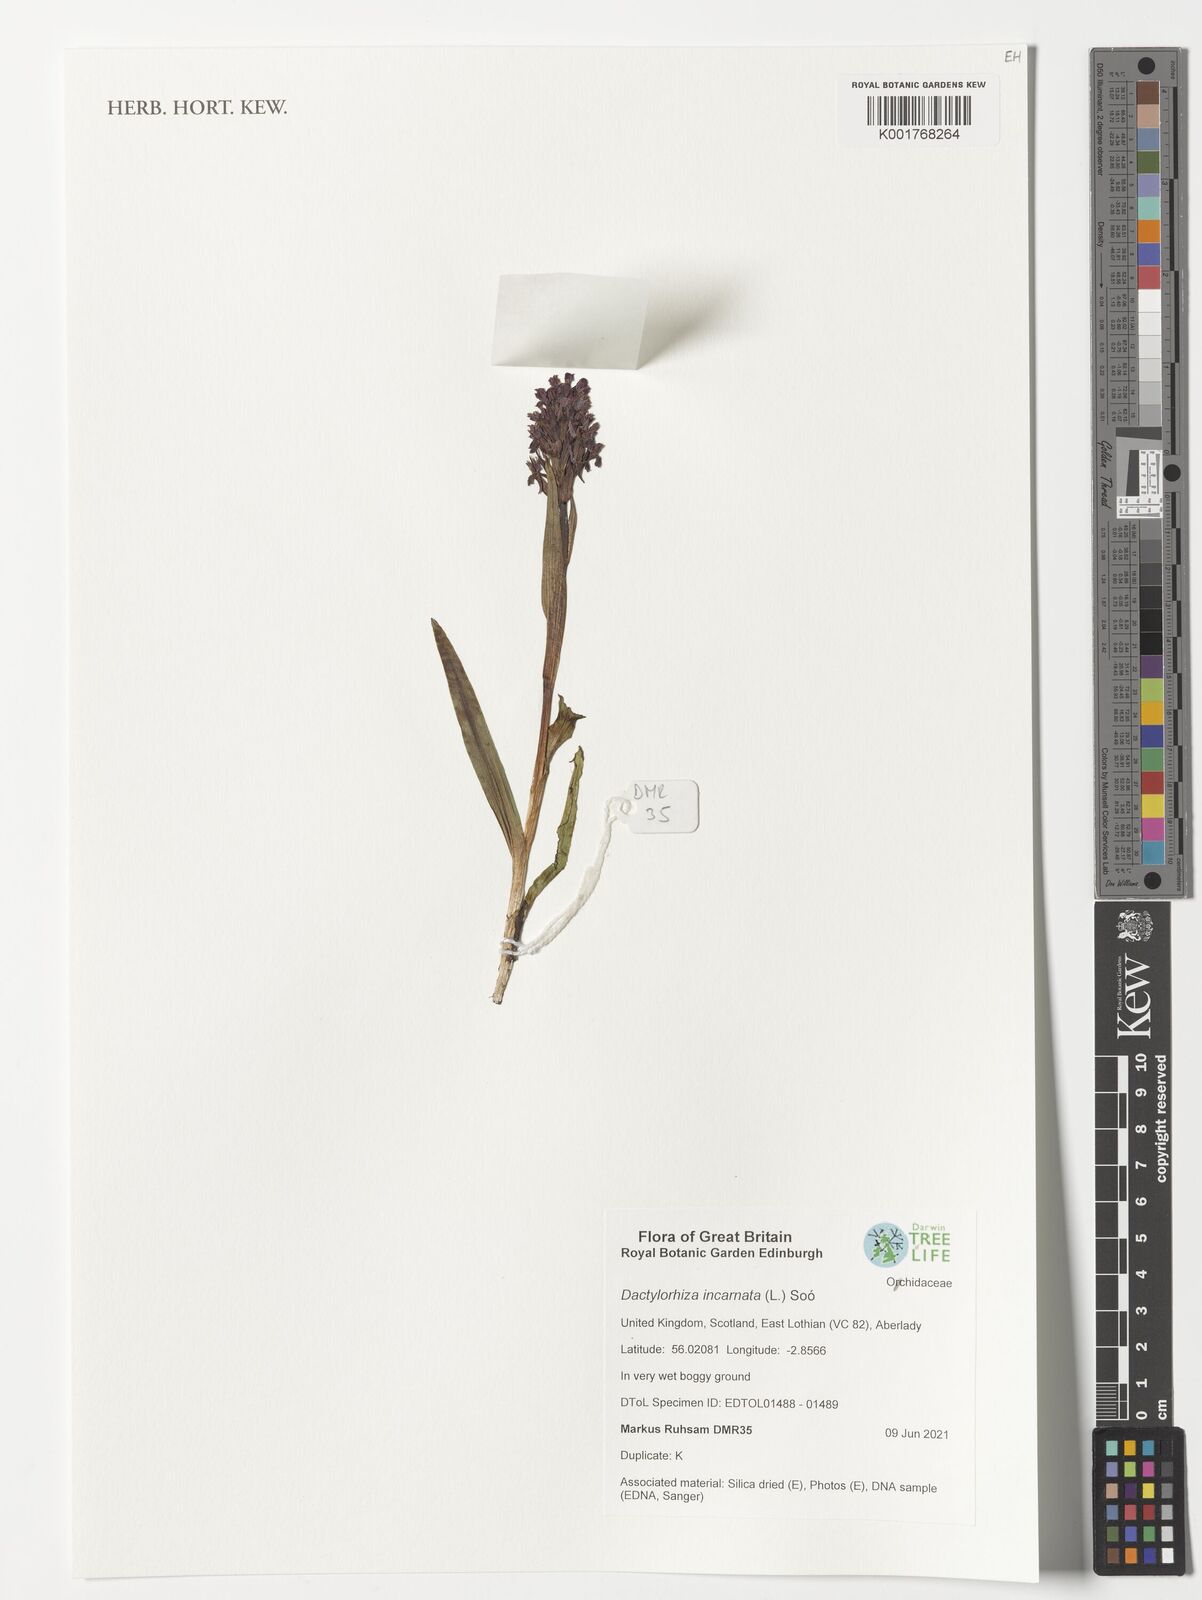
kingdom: Plantae
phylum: Tracheophyta
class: Liliopsida
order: Asparagales
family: Orchidaceae
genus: Dactylorhiza
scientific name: Dactylorhiza incarnata
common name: Early marsh-orchid
